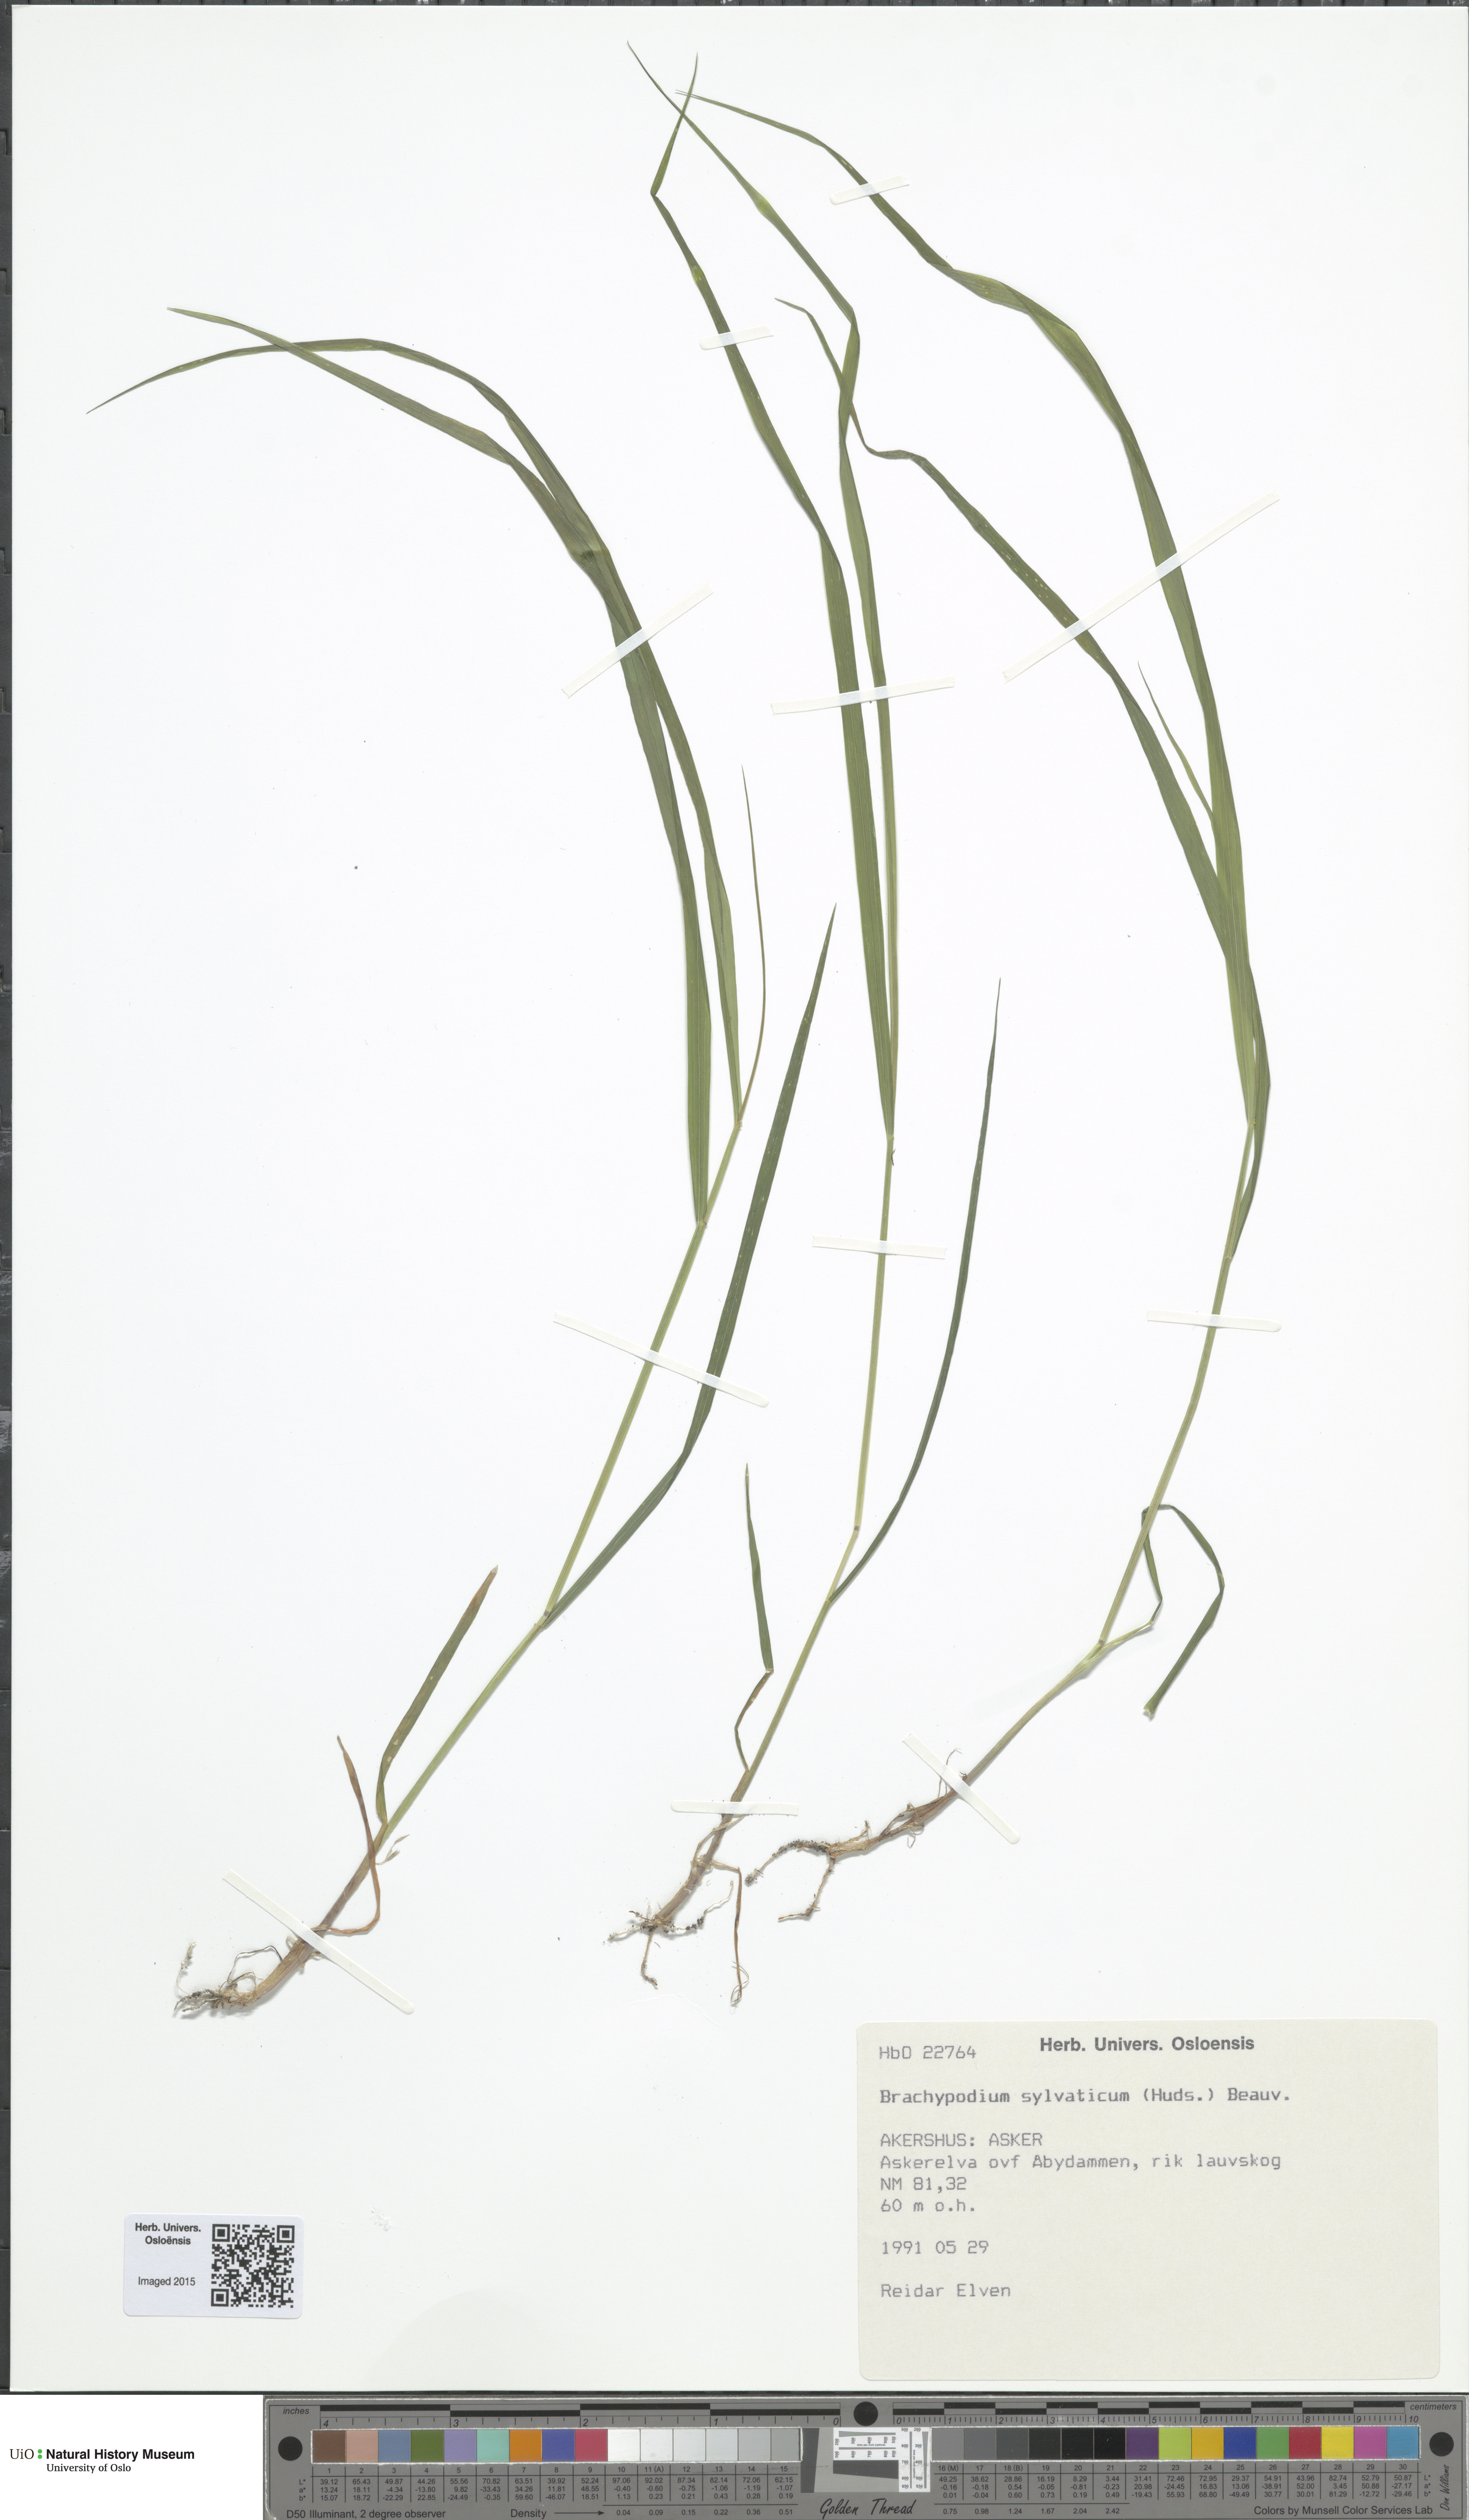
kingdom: Plantae
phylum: Tracheophyta
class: Liliopsida
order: Poales
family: Poaceae
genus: Brachypodium
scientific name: Brachypodium sylvaticum
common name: False-brome
